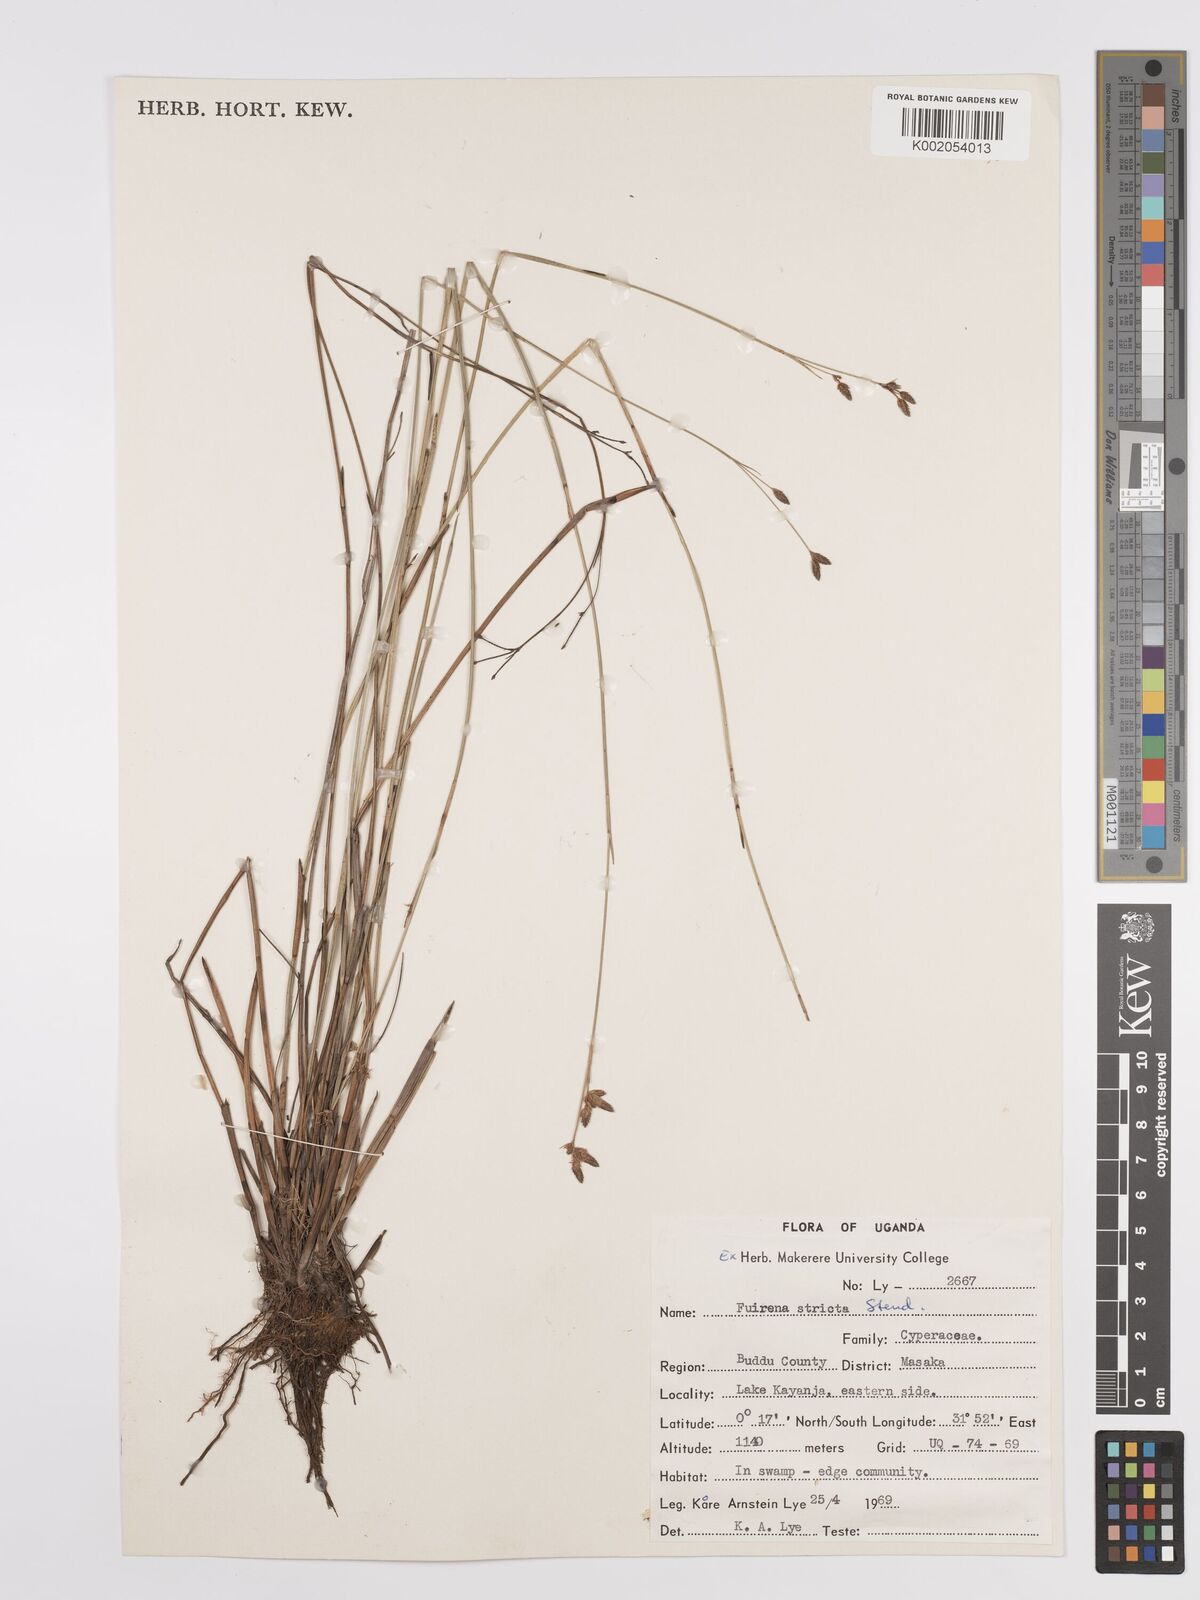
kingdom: Plantae
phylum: Tracheophyta
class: Liliopsida
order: Poales
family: Cyperaceae
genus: Fuirena
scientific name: Fuirena stricta
